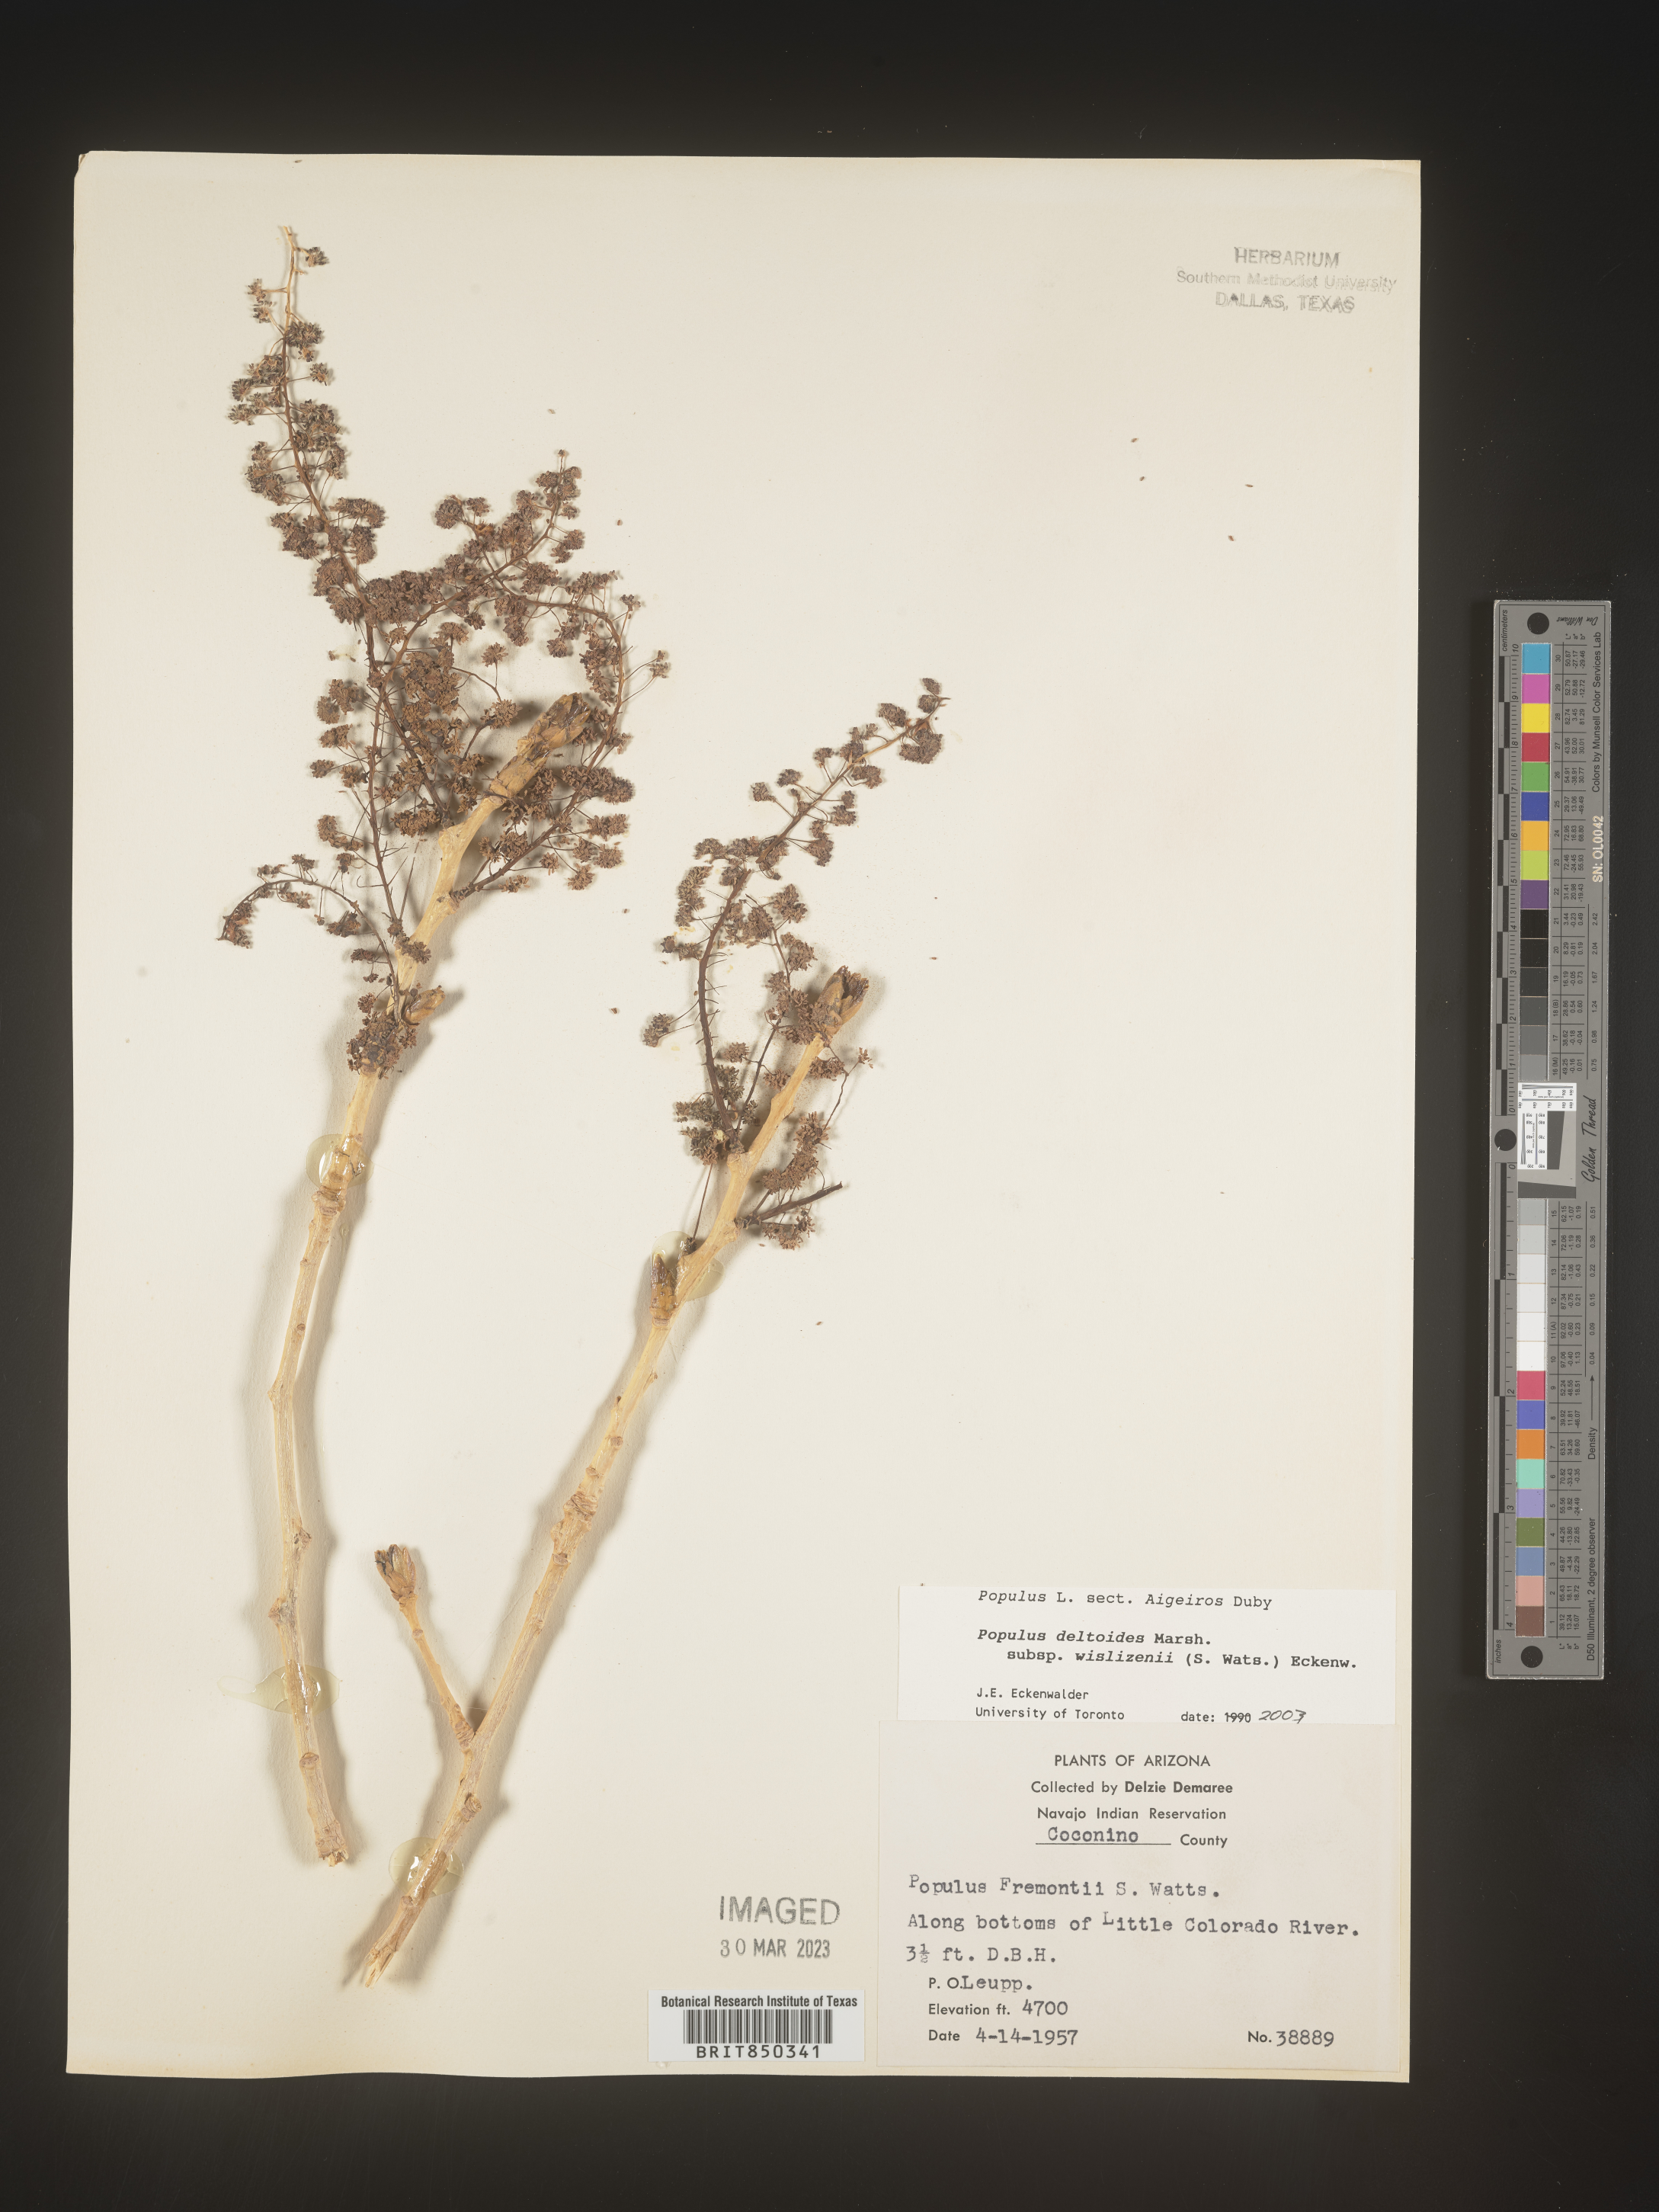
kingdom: Plantae
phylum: Tracheophyta
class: Magnoliopsida
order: Malpighiales
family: Salicaceae
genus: Populus
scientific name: Populus deltoides
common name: Eastern cottonwood
